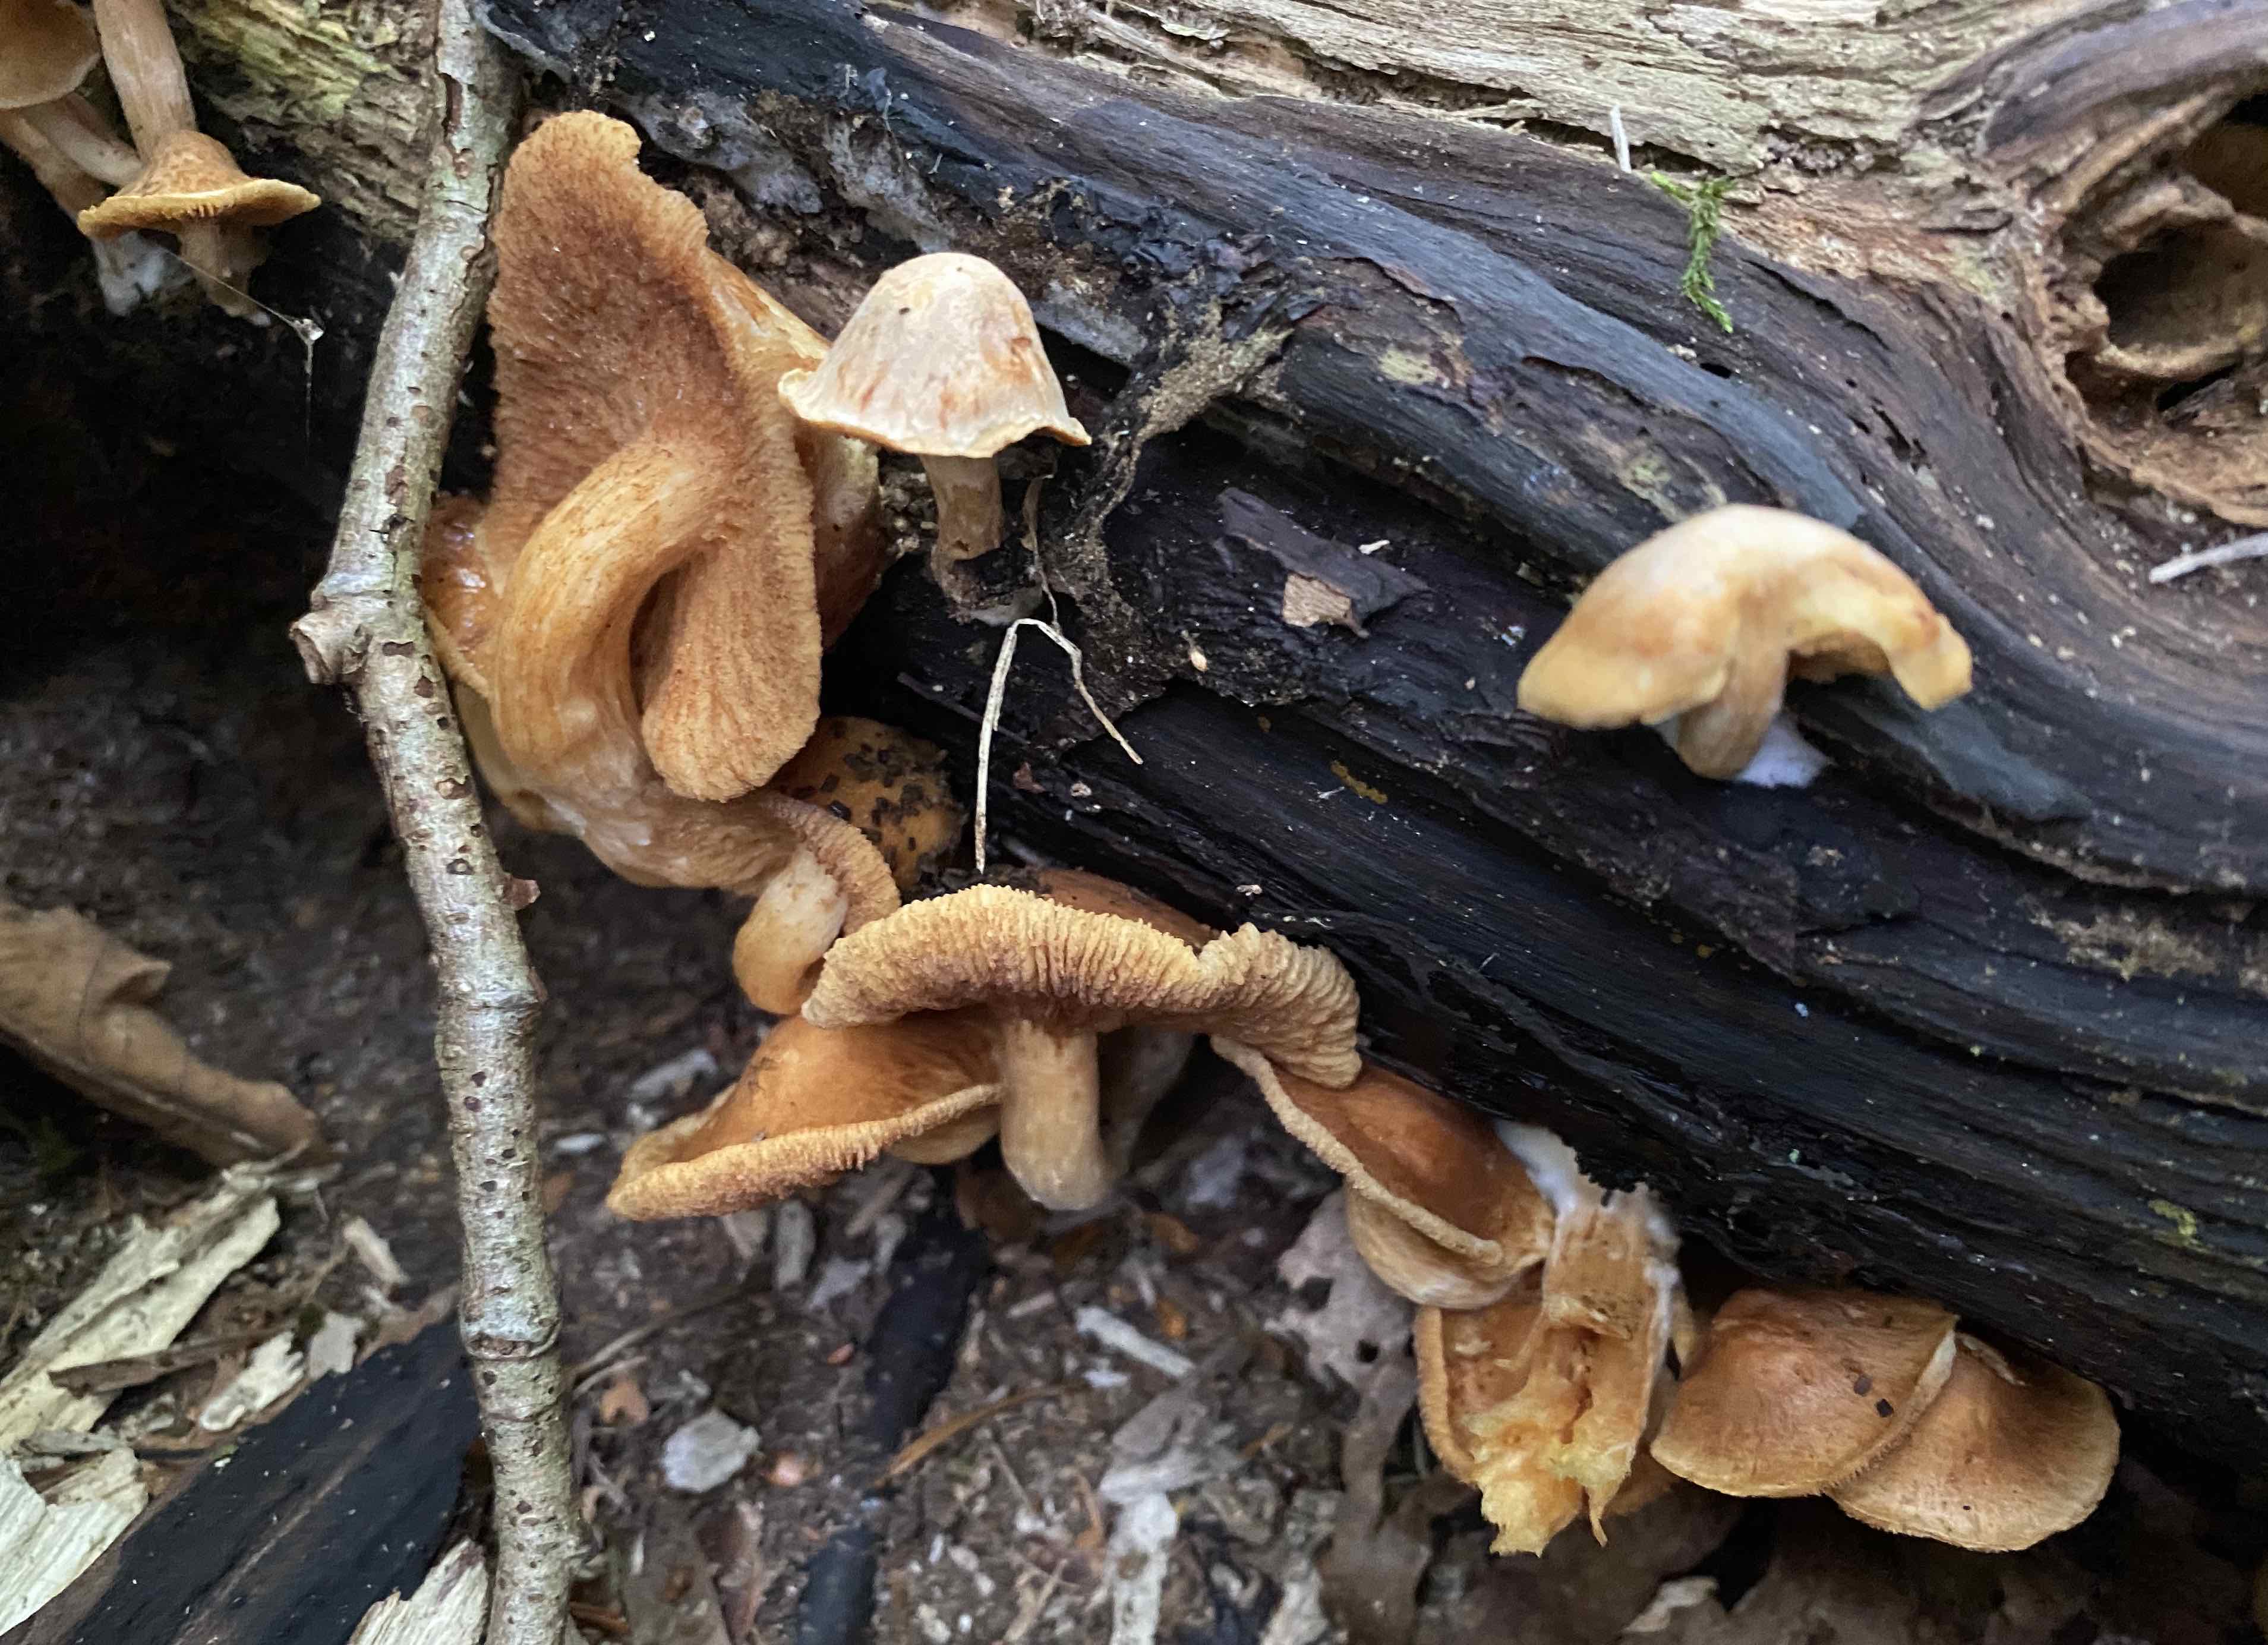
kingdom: Fungi
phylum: Basidiomycota
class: Agaricomycetes
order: Agaricales
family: Hymenogastraceae
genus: Gymnopilus
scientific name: Gymnopilus penetrans
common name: plettet flammehat
